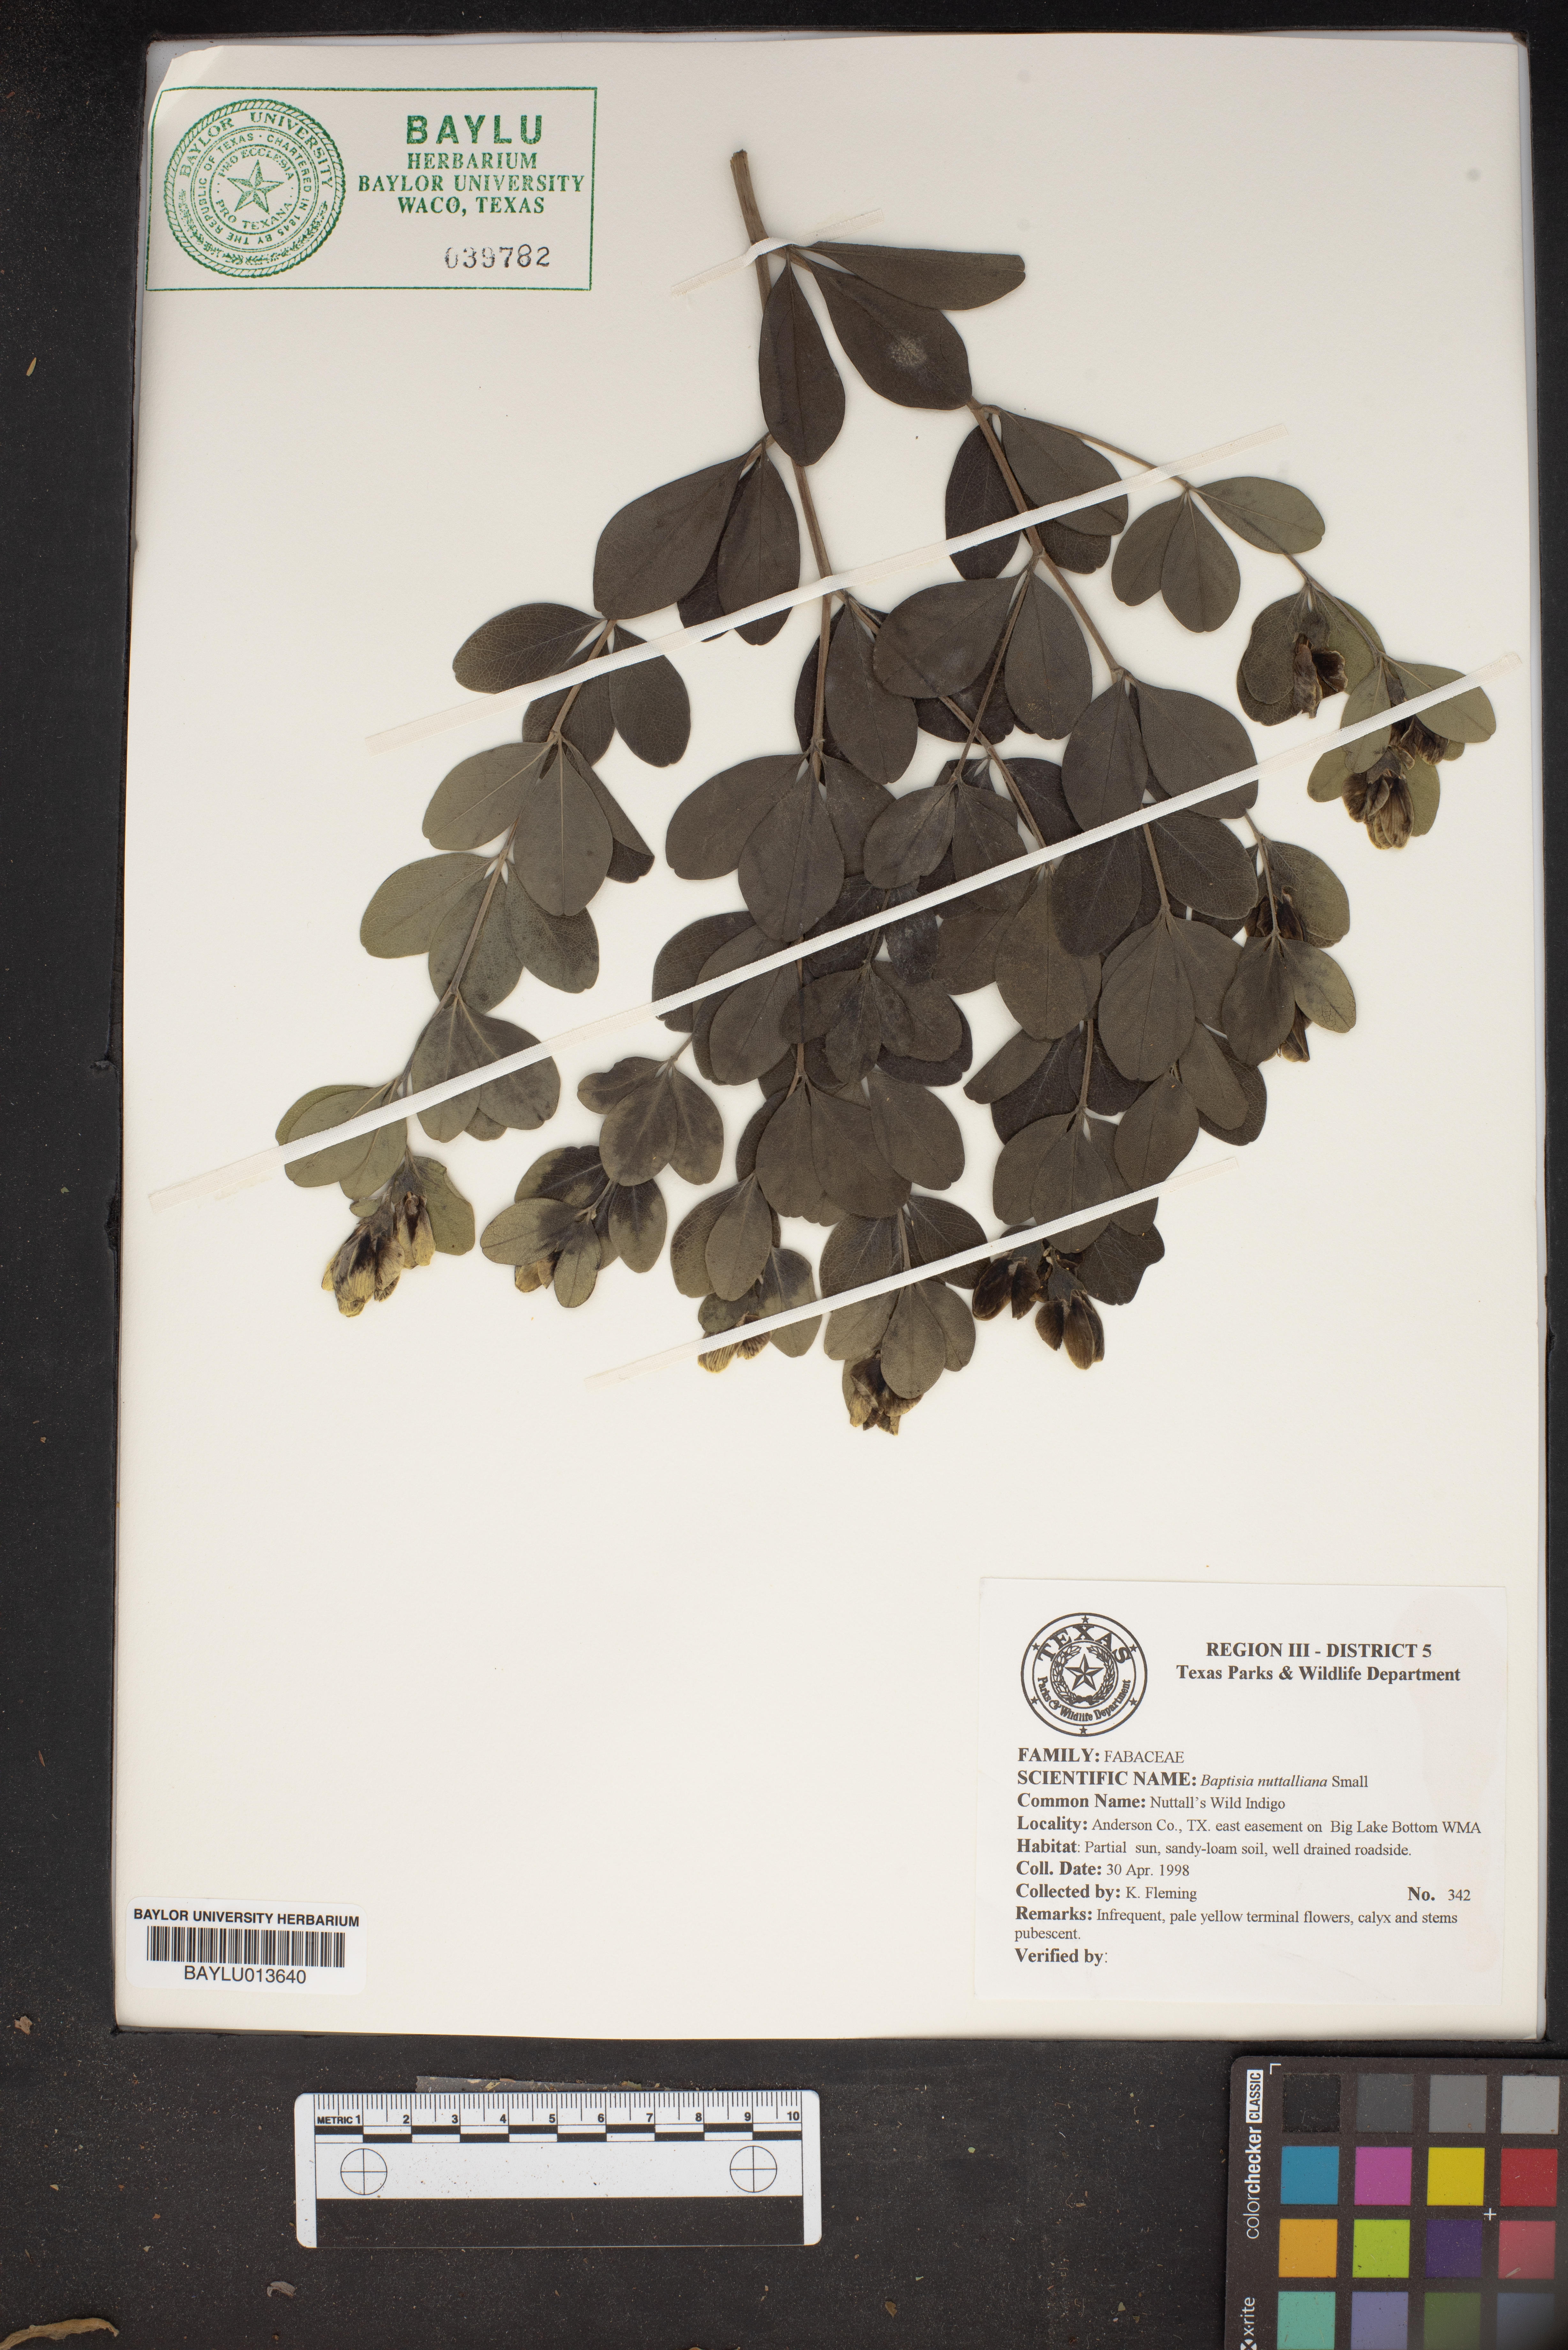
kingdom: Plantae
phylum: Tracheophyta
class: Magnoliopsida
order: Fabales
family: Fabaceae
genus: Baptisia
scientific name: Baptisia nuttalliana
